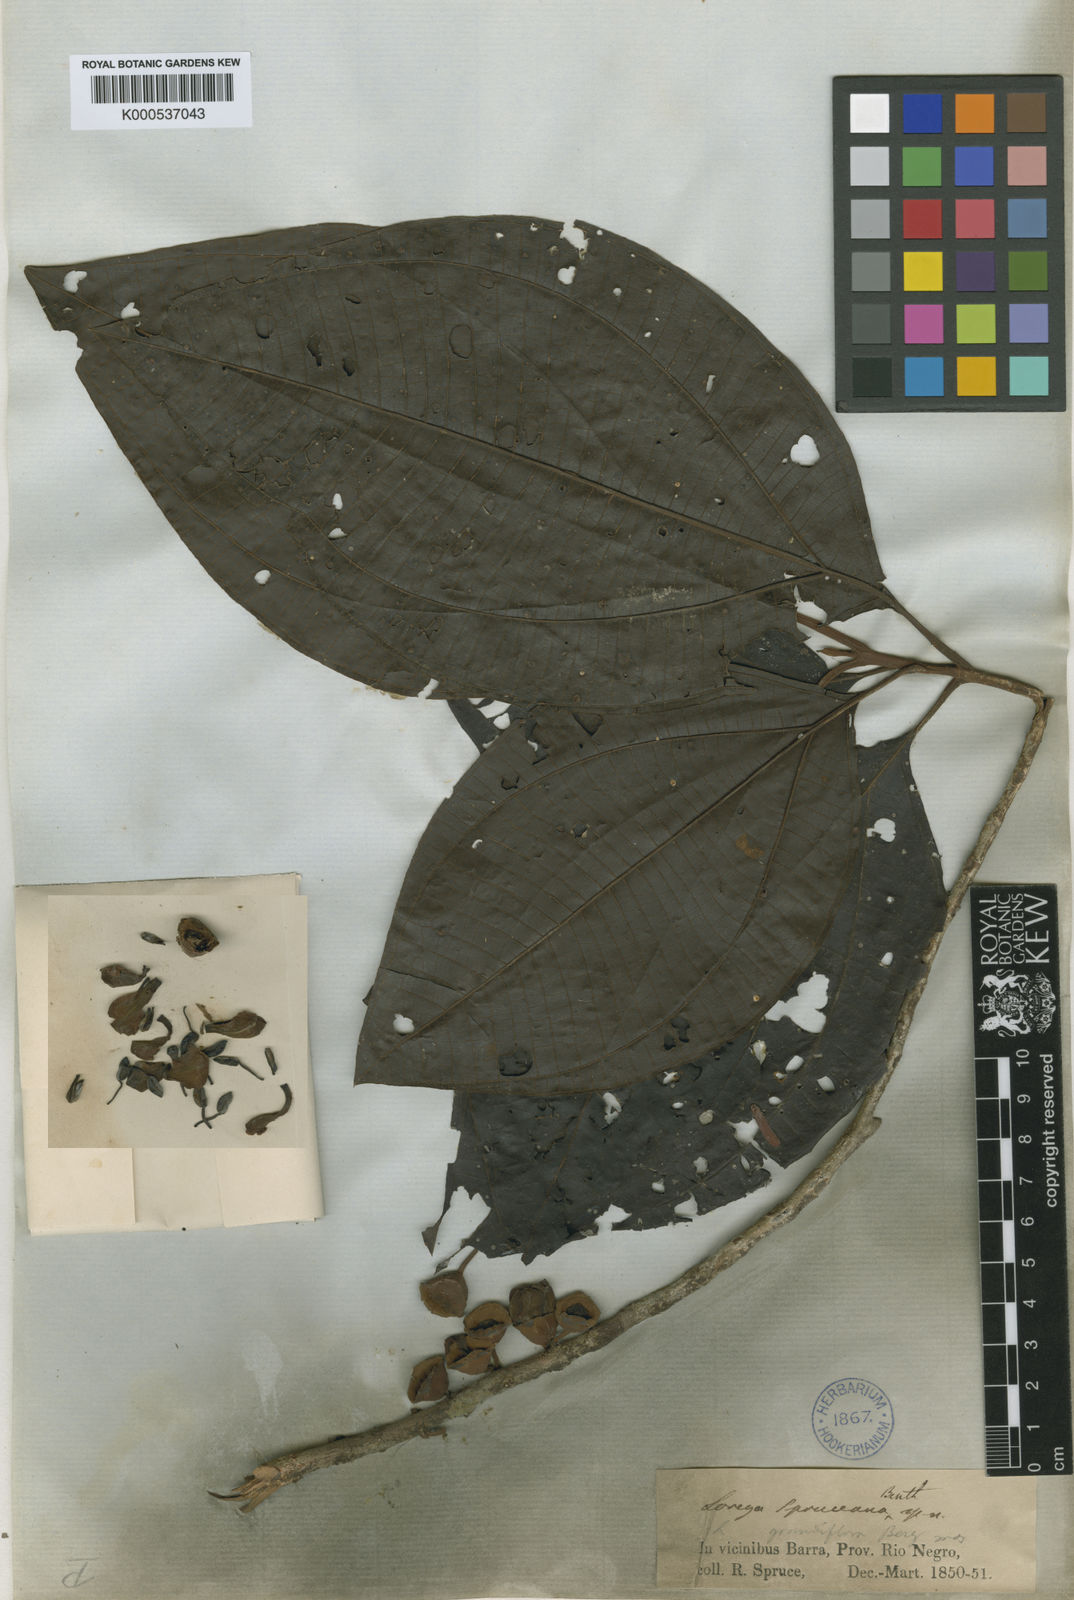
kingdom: Plantae
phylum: Tracheophyta
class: Magnoliopsida
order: Myrtales
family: Melastomataceae
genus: Bellucia
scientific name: Bellucia spruceana
